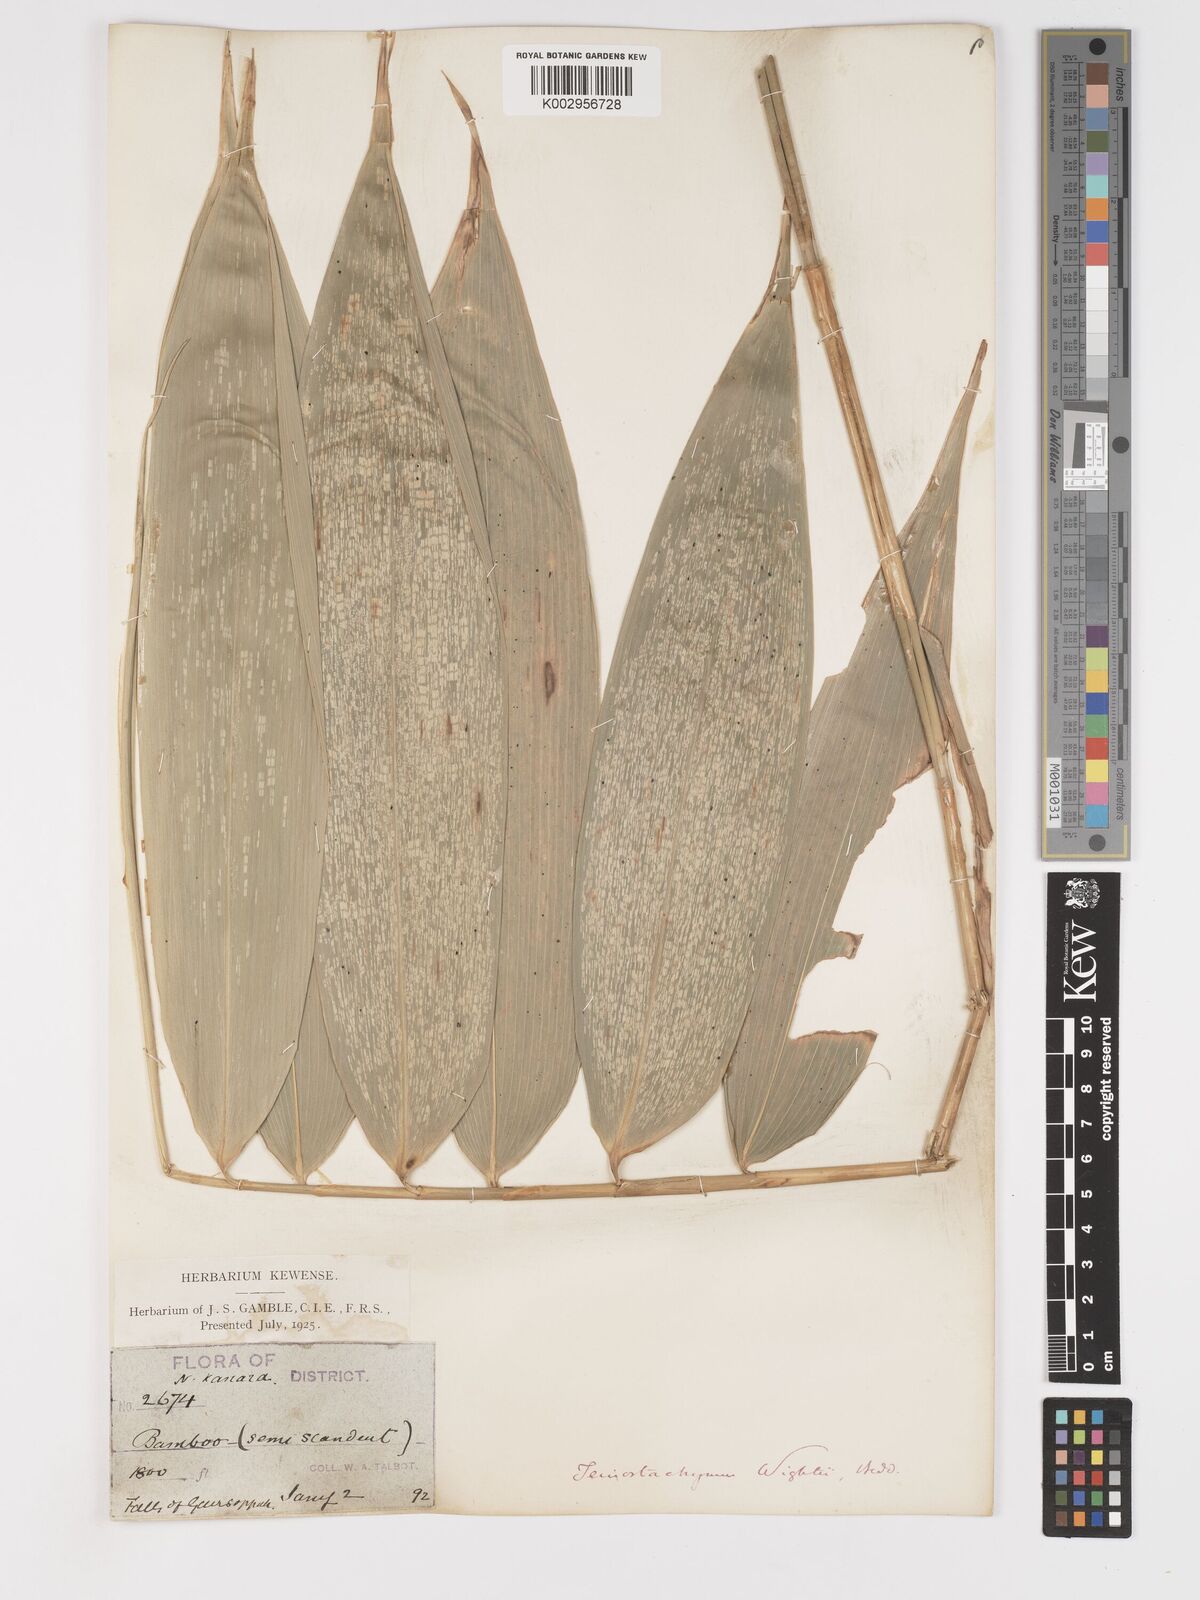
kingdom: Plantae
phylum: Tracheophyta
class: Liliopsida
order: Poales
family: Poaceae
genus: Schizostachyum
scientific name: Schizostachyum beddomei
